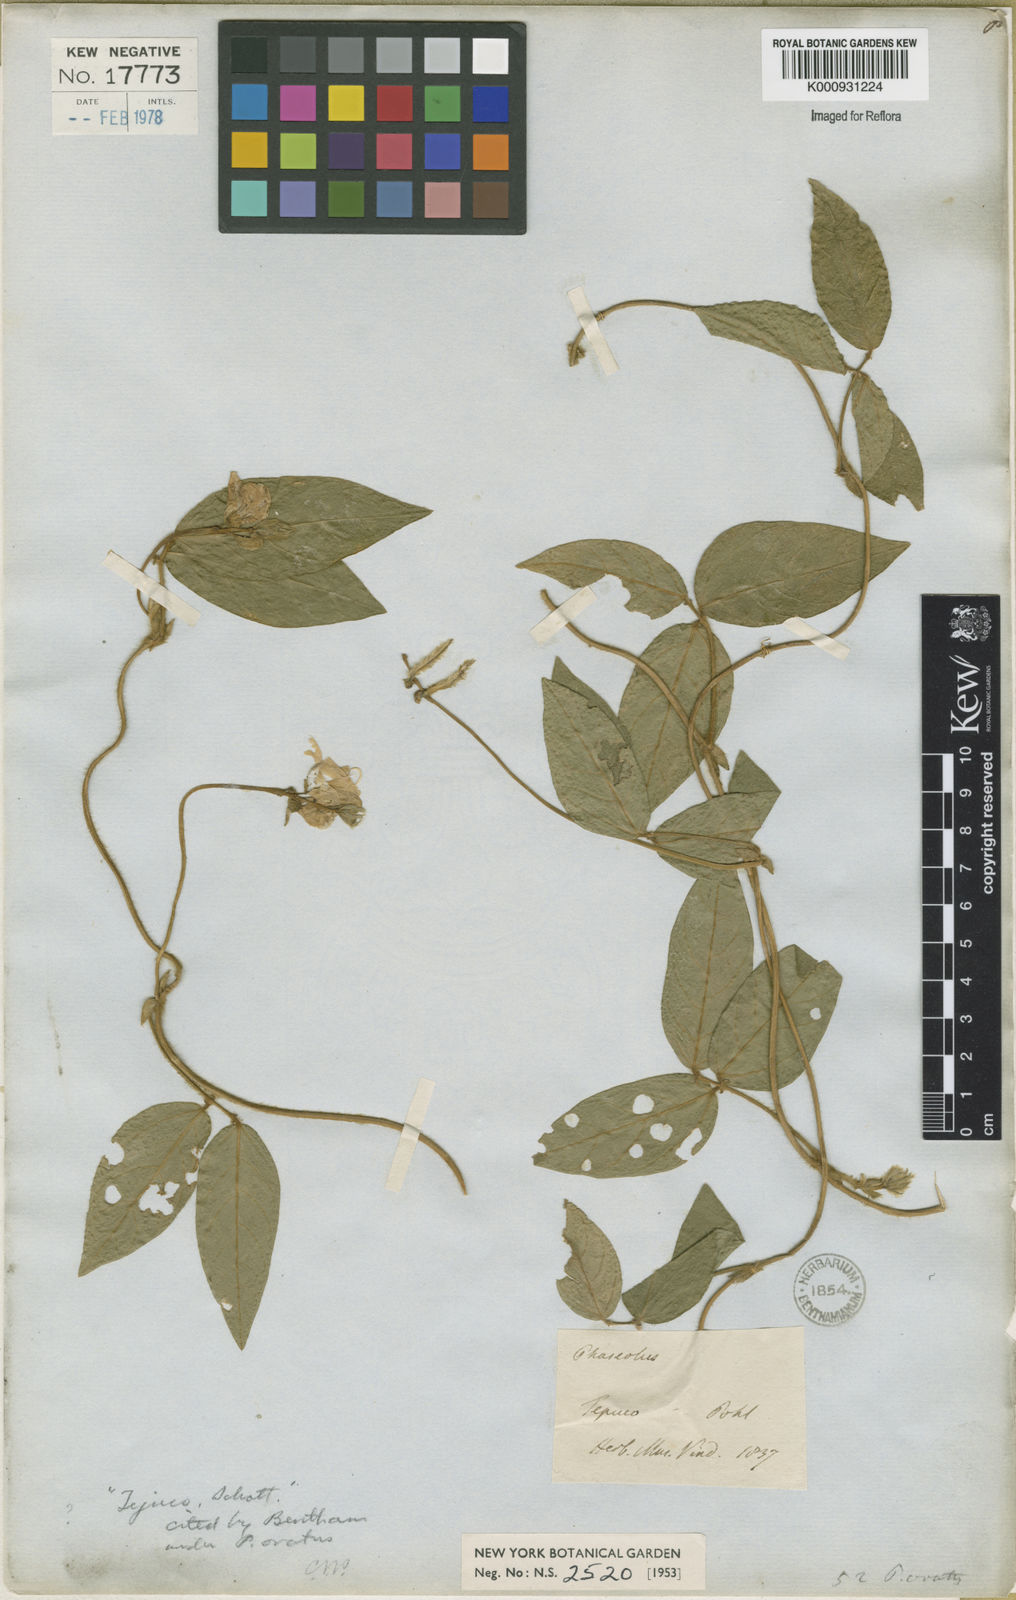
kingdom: Plantae
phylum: Tracheophyta
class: Magnoliopsida
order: Fabales
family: Fabaceae
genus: Vigna
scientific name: Vigna longifolia
